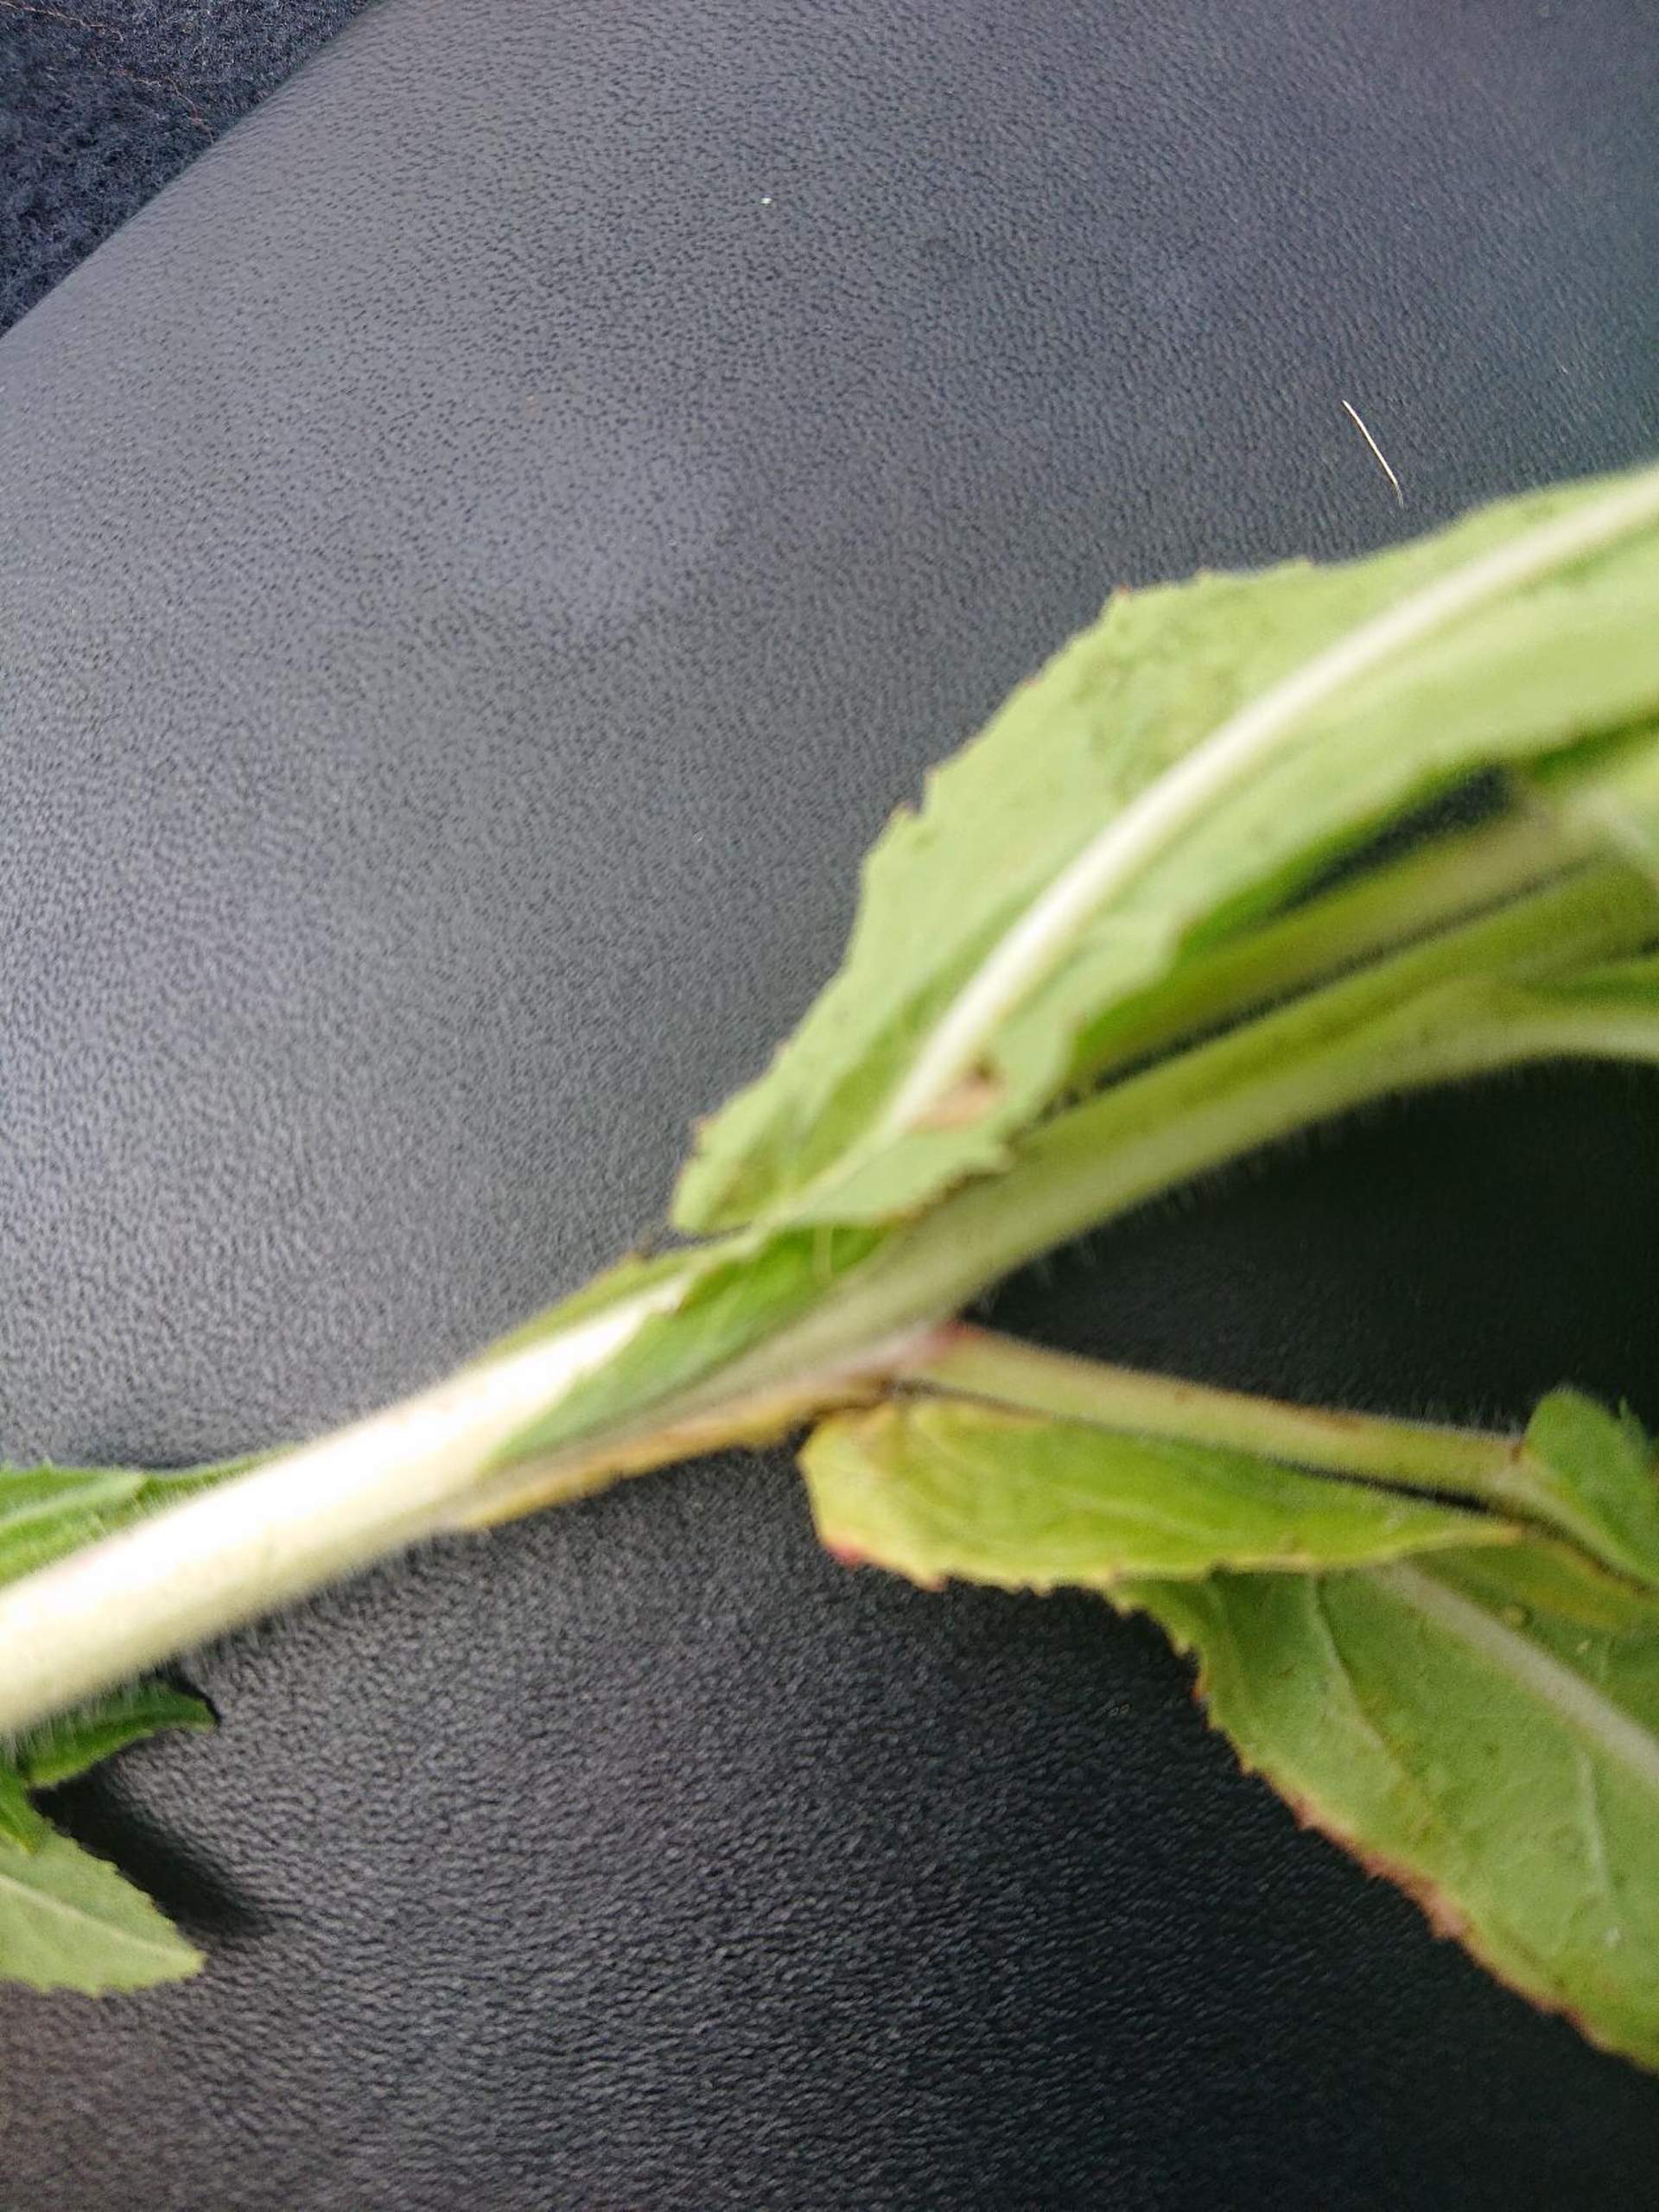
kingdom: Plantae
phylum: Tracheophyta
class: Magnoliopsida
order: Myrtales
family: Onagraceae
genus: Epilobium
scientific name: Epilobium hirsutum
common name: Lådden dueurt
